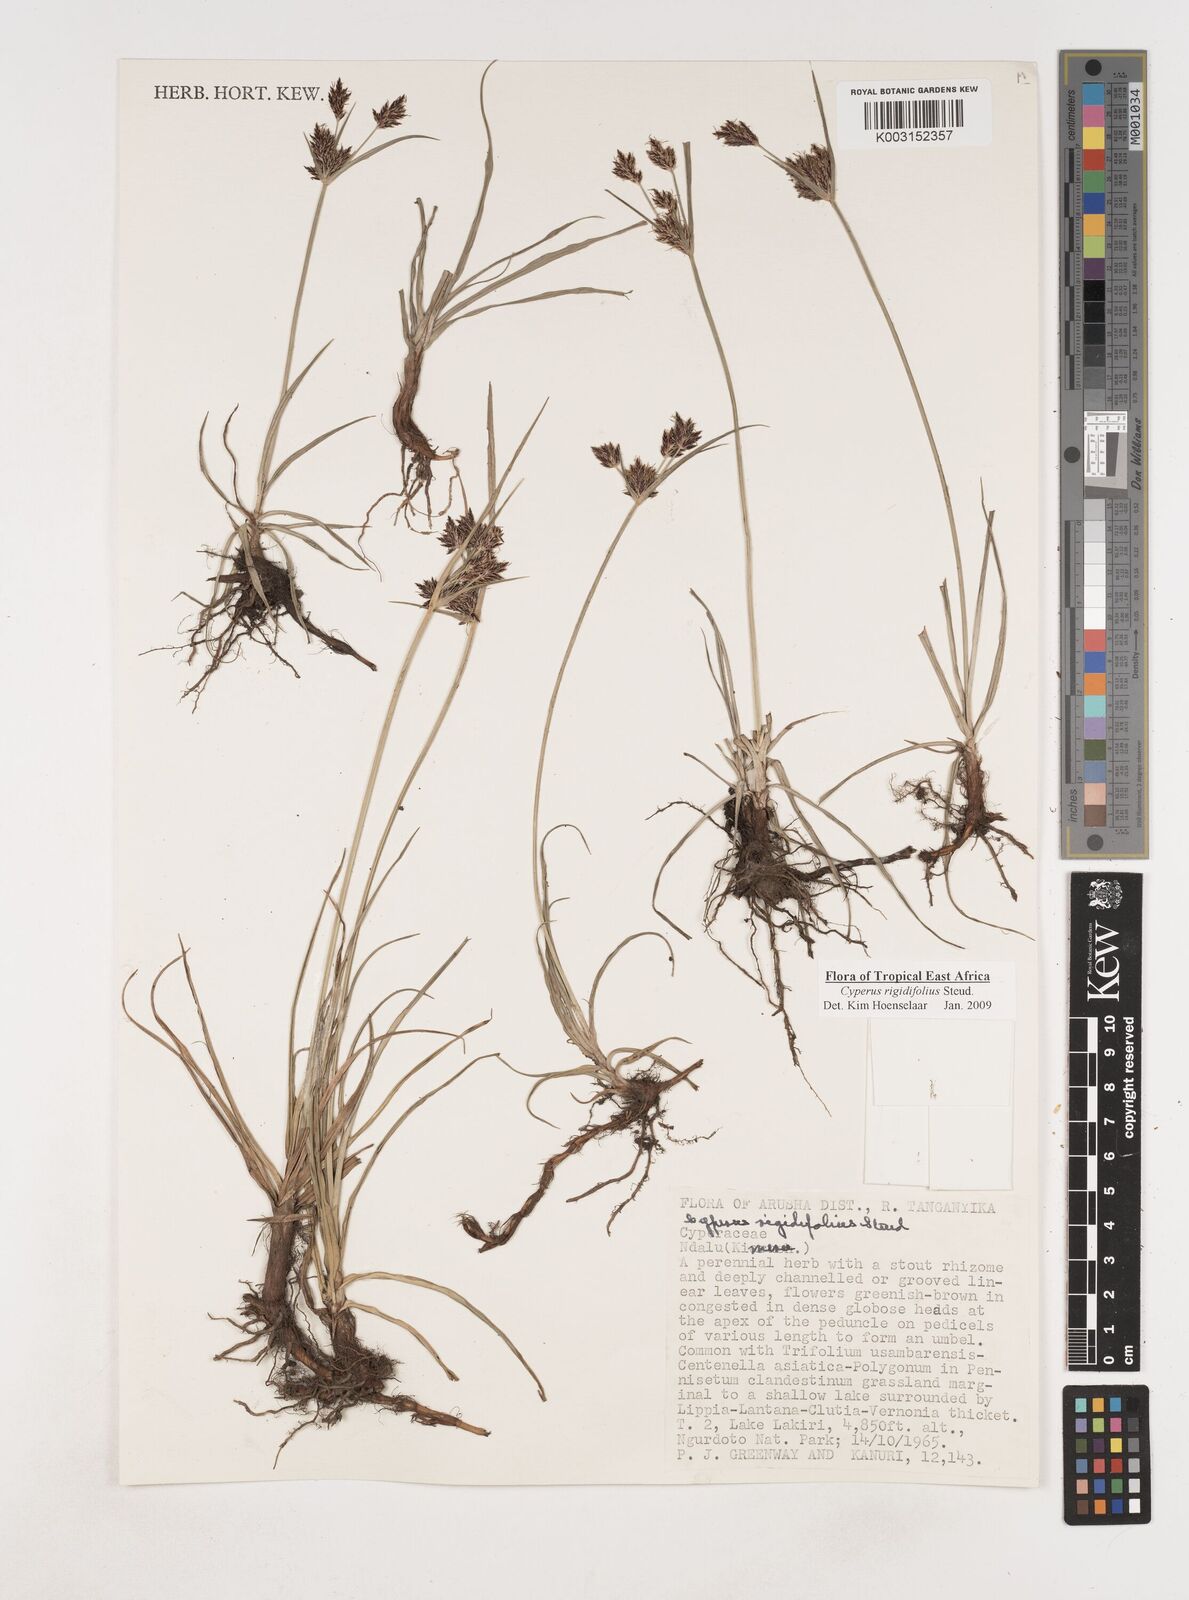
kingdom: Plantae
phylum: Tracheophyta
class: Liliopsida
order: Poales
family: Cyperaceae
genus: Cyperus
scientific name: Cyperus rigidifolius
